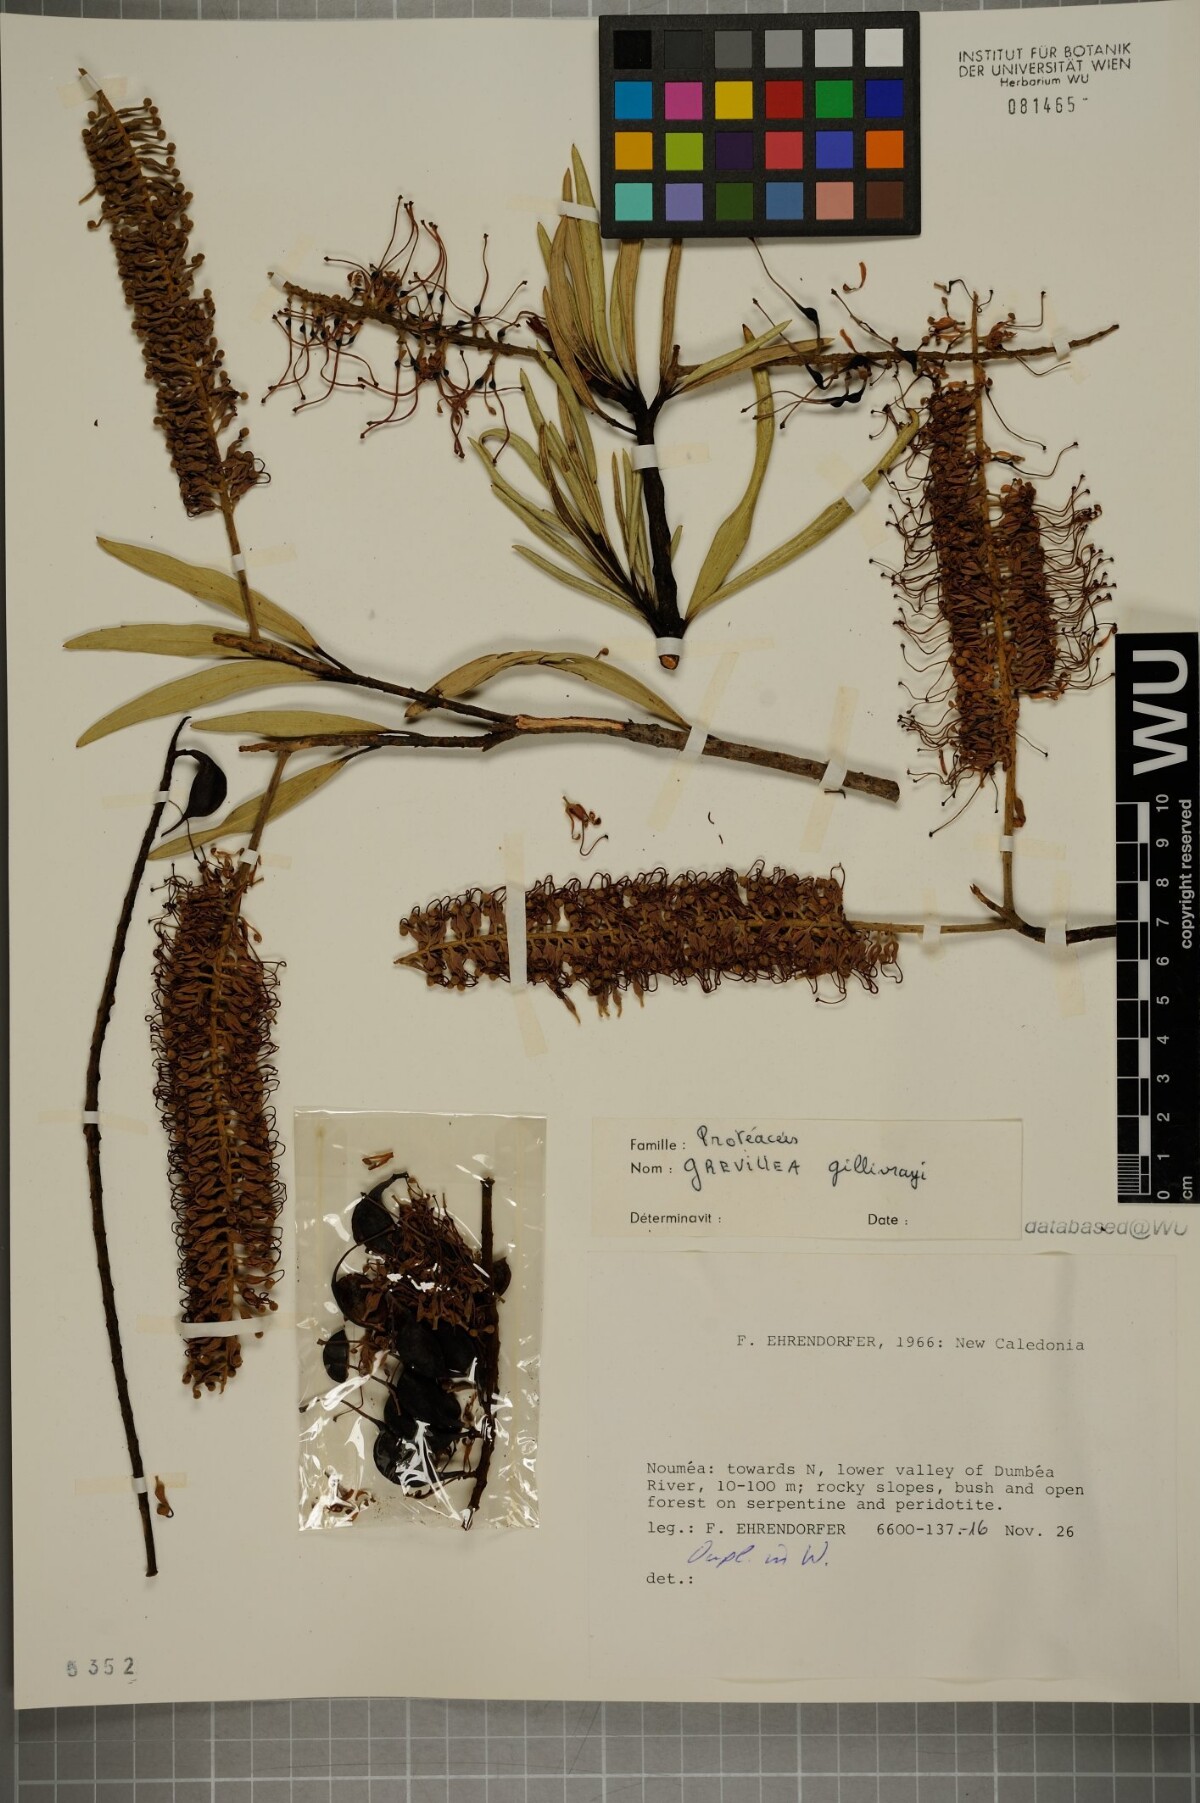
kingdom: Plantae
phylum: Tracheophyta
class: Magnoliopsida
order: Proteales
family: Proteaceae
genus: Grevillea
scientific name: Grevillea gillivrayi
